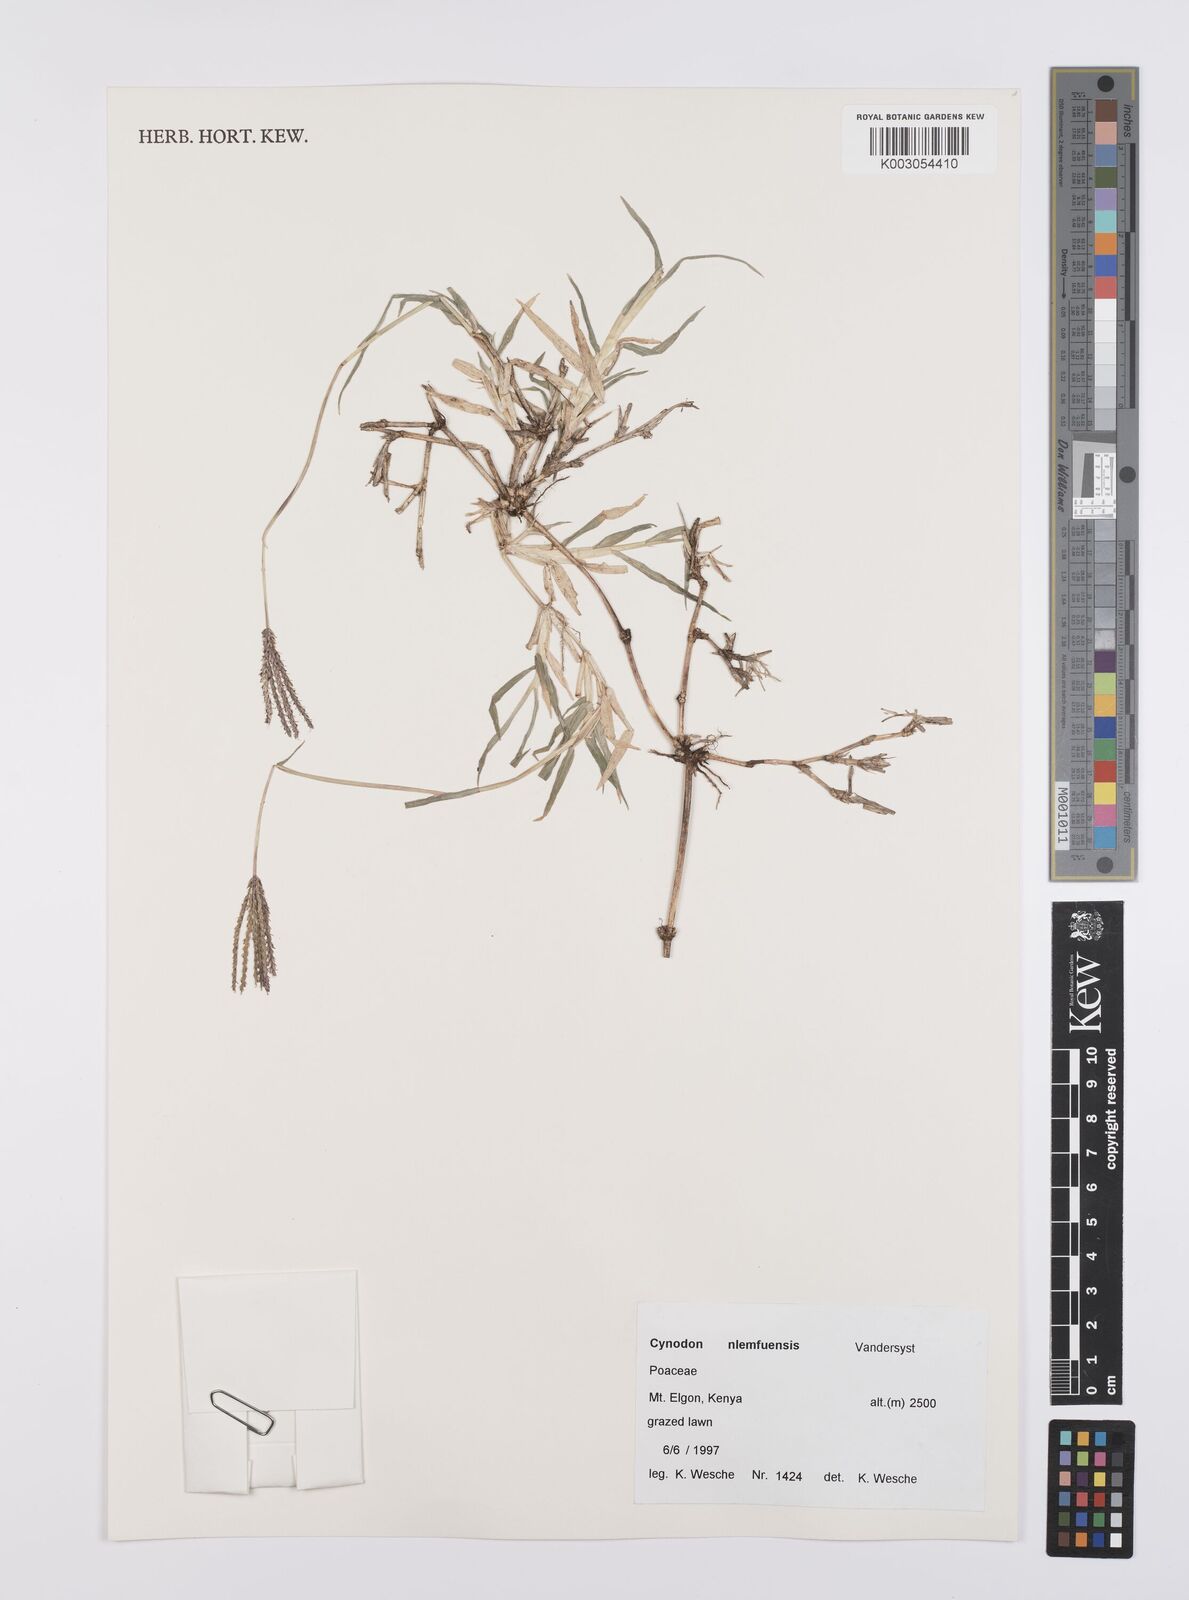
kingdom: Plantae
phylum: Tracheophyta
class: Liliopsida
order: Poales
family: Poaceae
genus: Cynodon
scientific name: Cynodon nlemfuensis
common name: African bermudagrass
